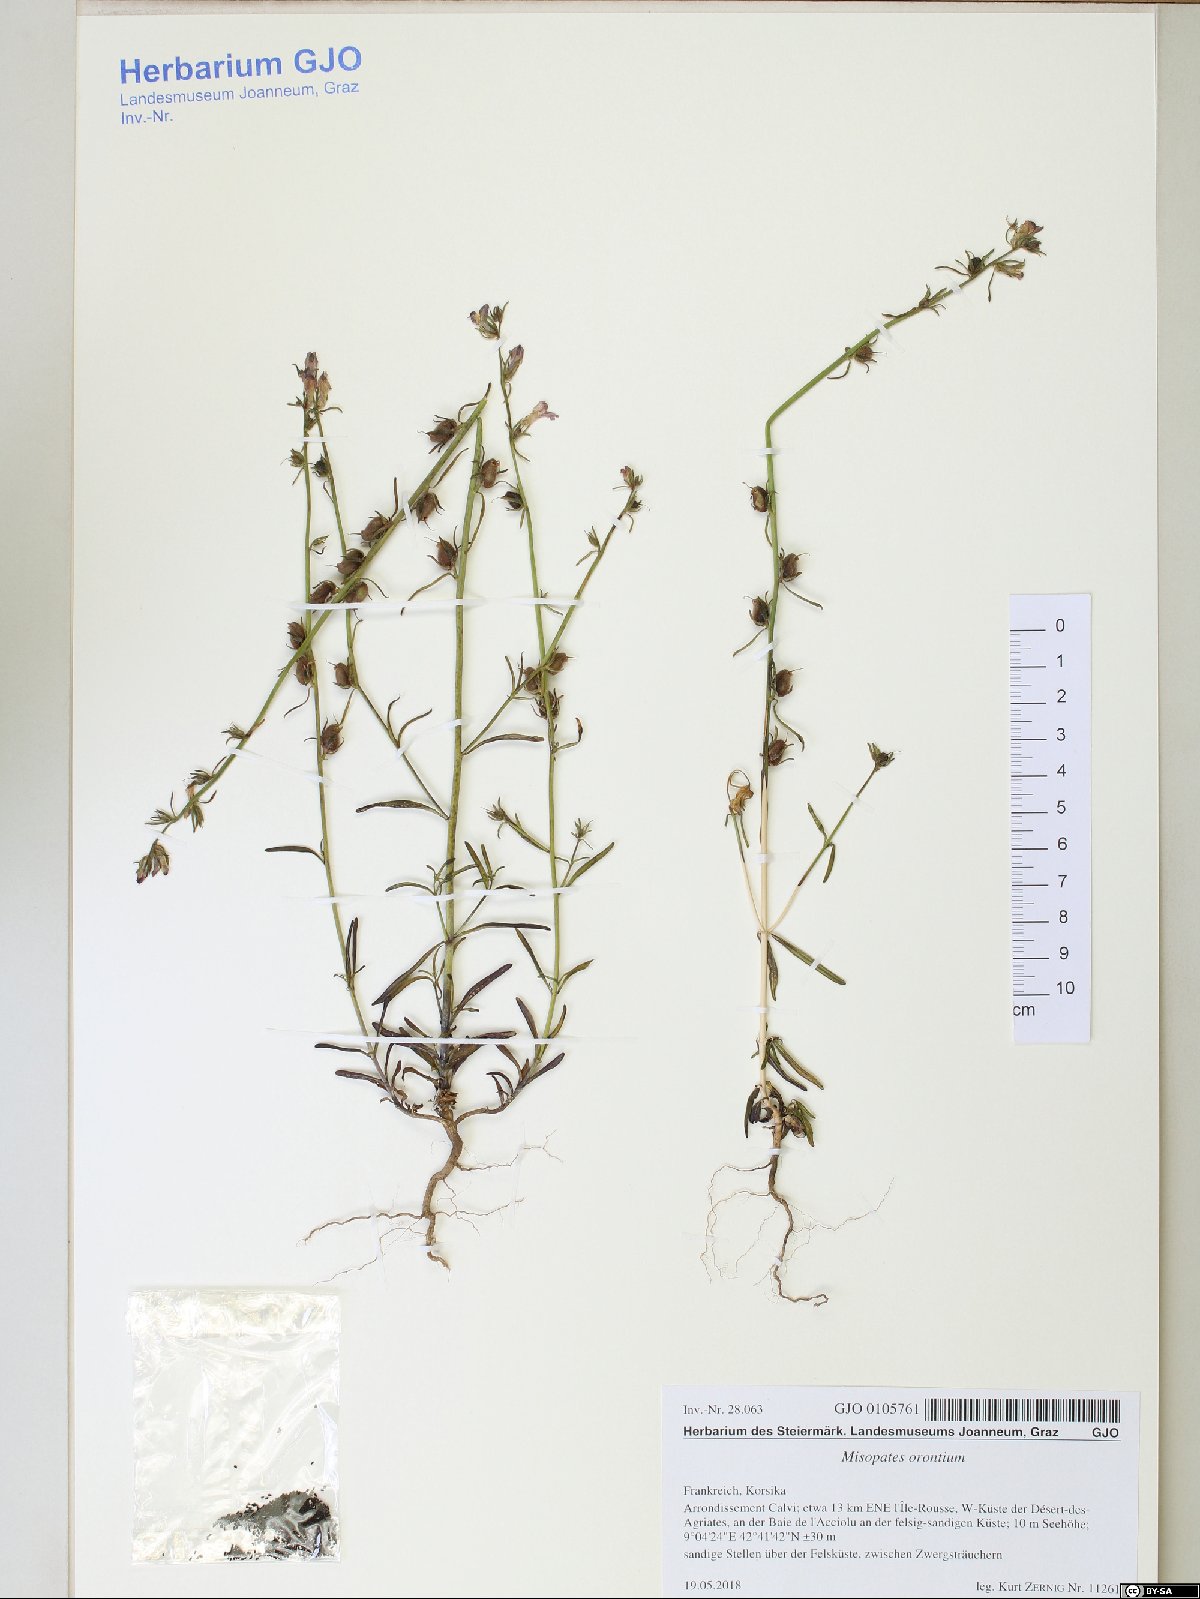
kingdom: Plantae
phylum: Tracheophyta
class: Magnoliopsida
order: Lamiales
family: Plantaginaceae
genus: Misopates
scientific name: Misopates orontium
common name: Weasel's-snout
